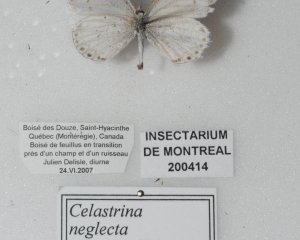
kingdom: Animalia
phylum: Arthropoda
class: Insecta
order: Lepidoptera
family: Lycaenidae
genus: Cyaniris
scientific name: Cyaniris neglecta
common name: Summer Azure
